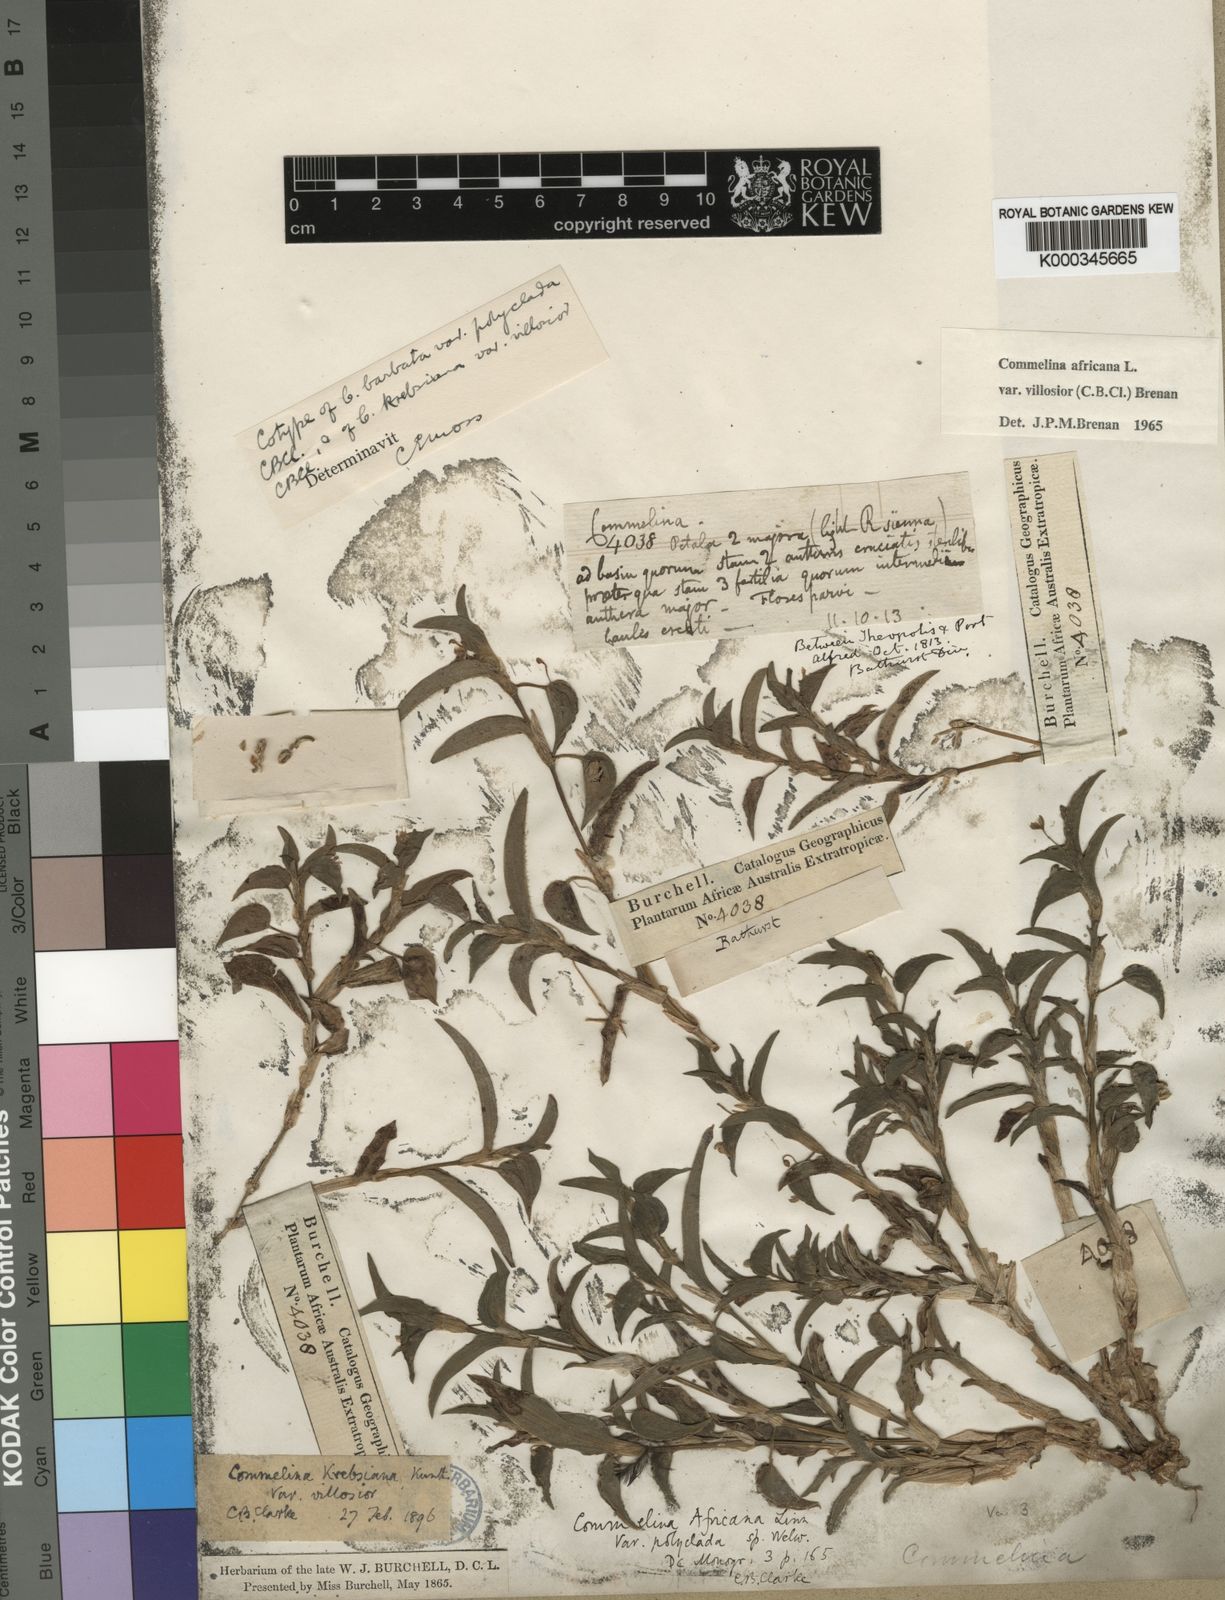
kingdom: Plantae
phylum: Tracheophyta
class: Liliopsida
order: Commelinales
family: Commelinaceae
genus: Commelina
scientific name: Commelina africana
